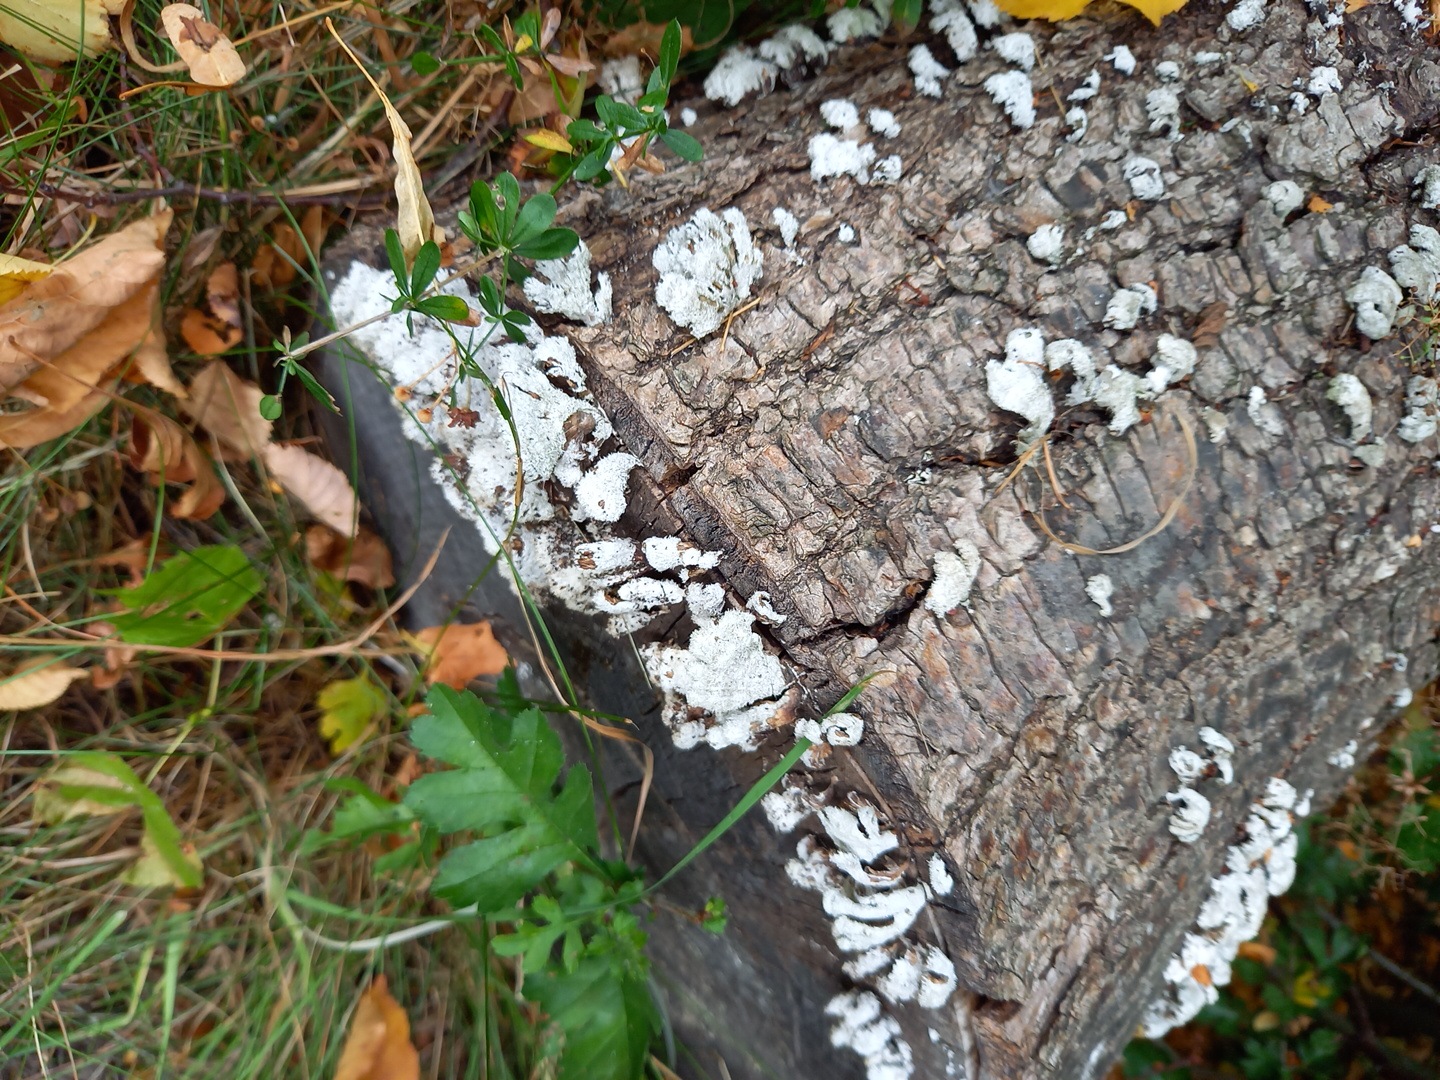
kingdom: Fungi
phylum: Basidiomycota
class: Agaricomycetes
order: Agaricales
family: Schizophyllaceae
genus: Schizophyllum
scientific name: Schizophyllum commune
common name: kløvblad
